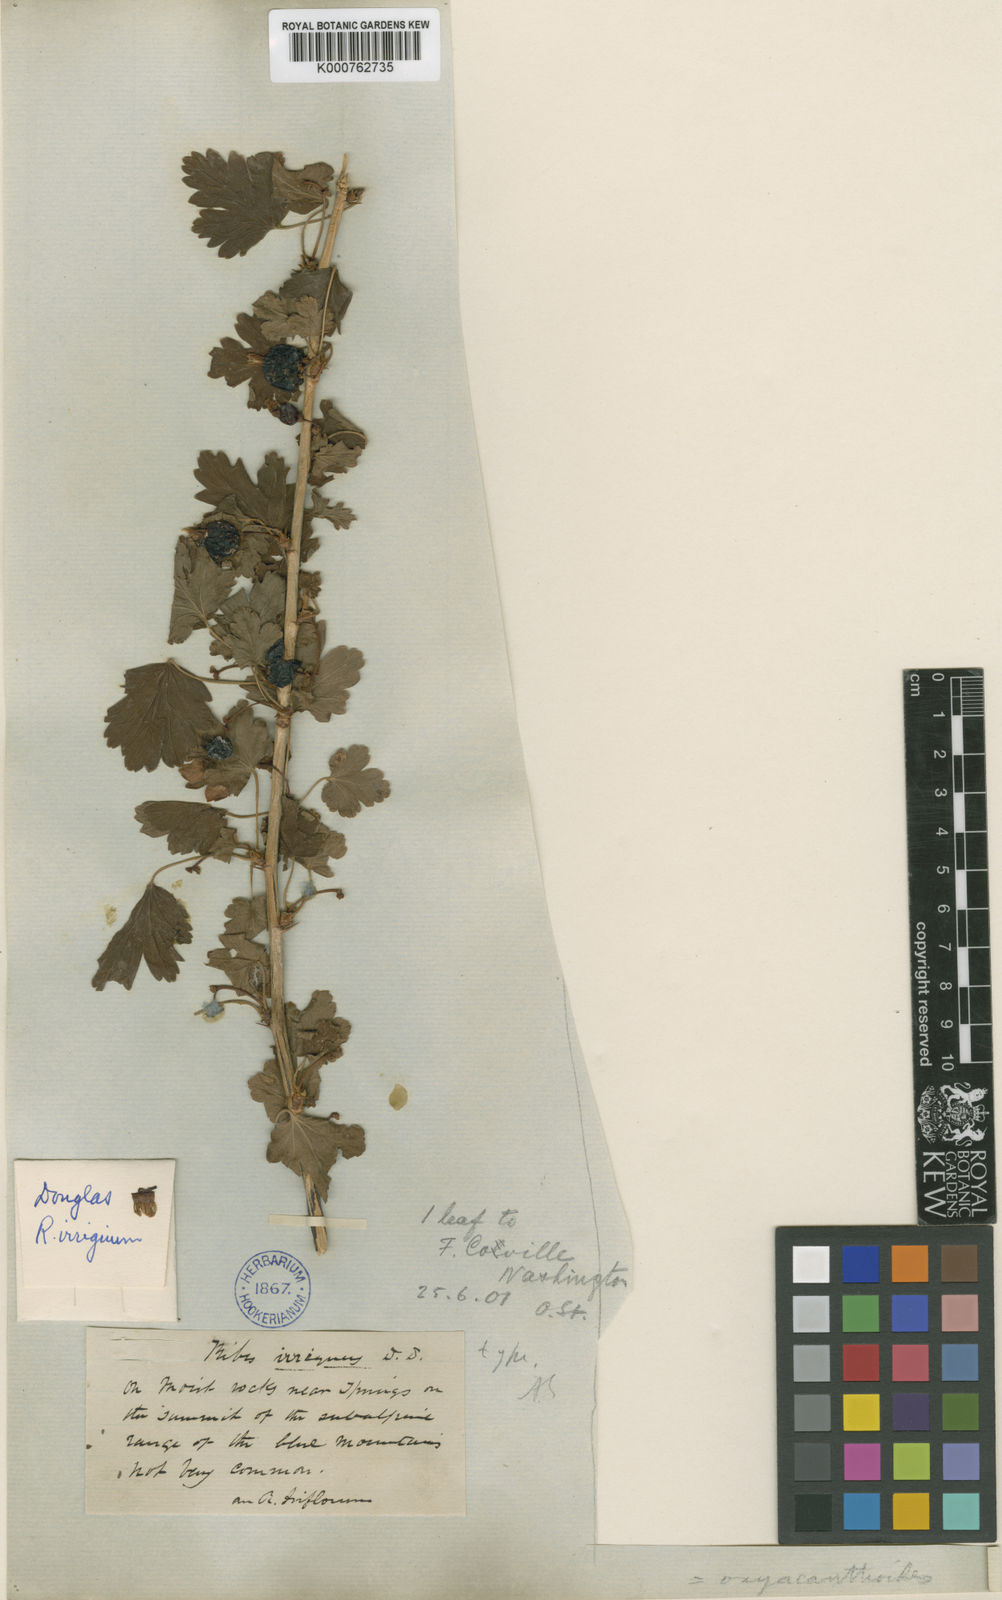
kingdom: Plantae
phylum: Tracheophyta
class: Magnoliopsida
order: Saxifragales
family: Grossulariaceae
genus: Ribes
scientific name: Ribes oxyacanthoides
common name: Northern gooseberry
